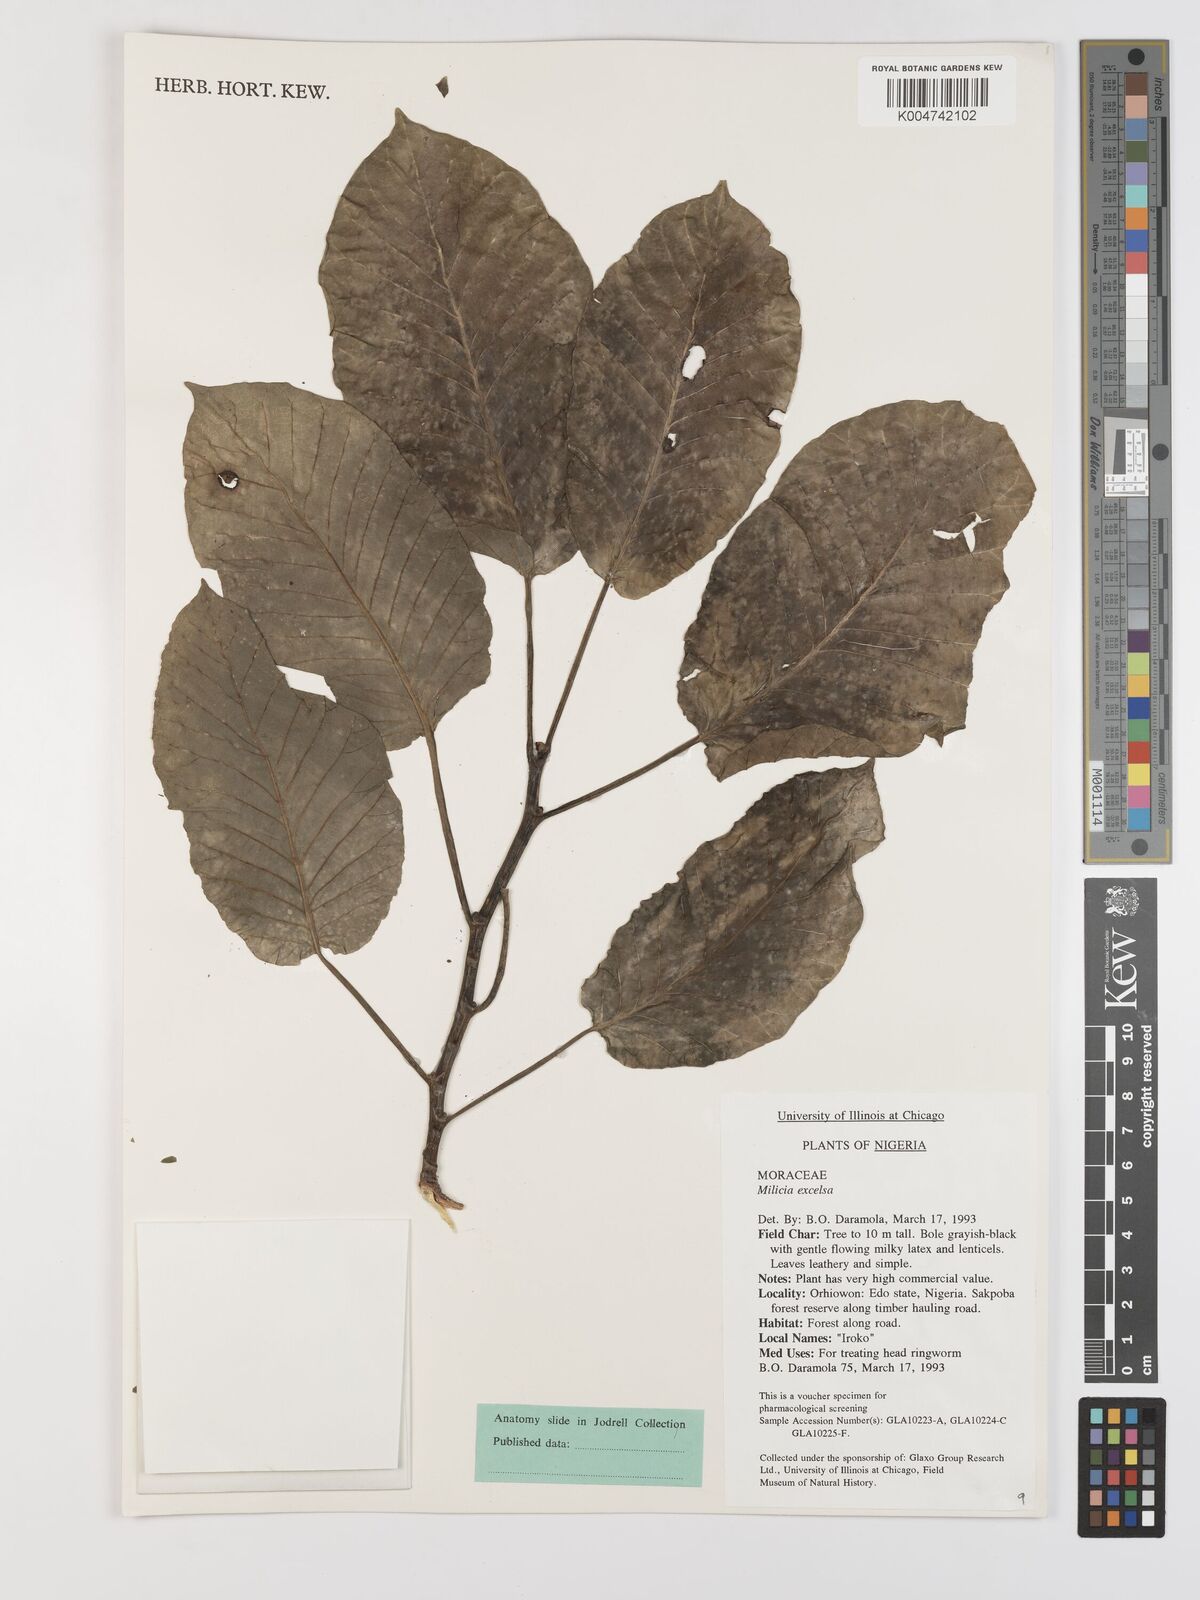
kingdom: Plantae
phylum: Tracheophyta
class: Magnoliopsida
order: Rosales
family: Moraceae
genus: Milicia
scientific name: Milicia excelsa
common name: African teak
